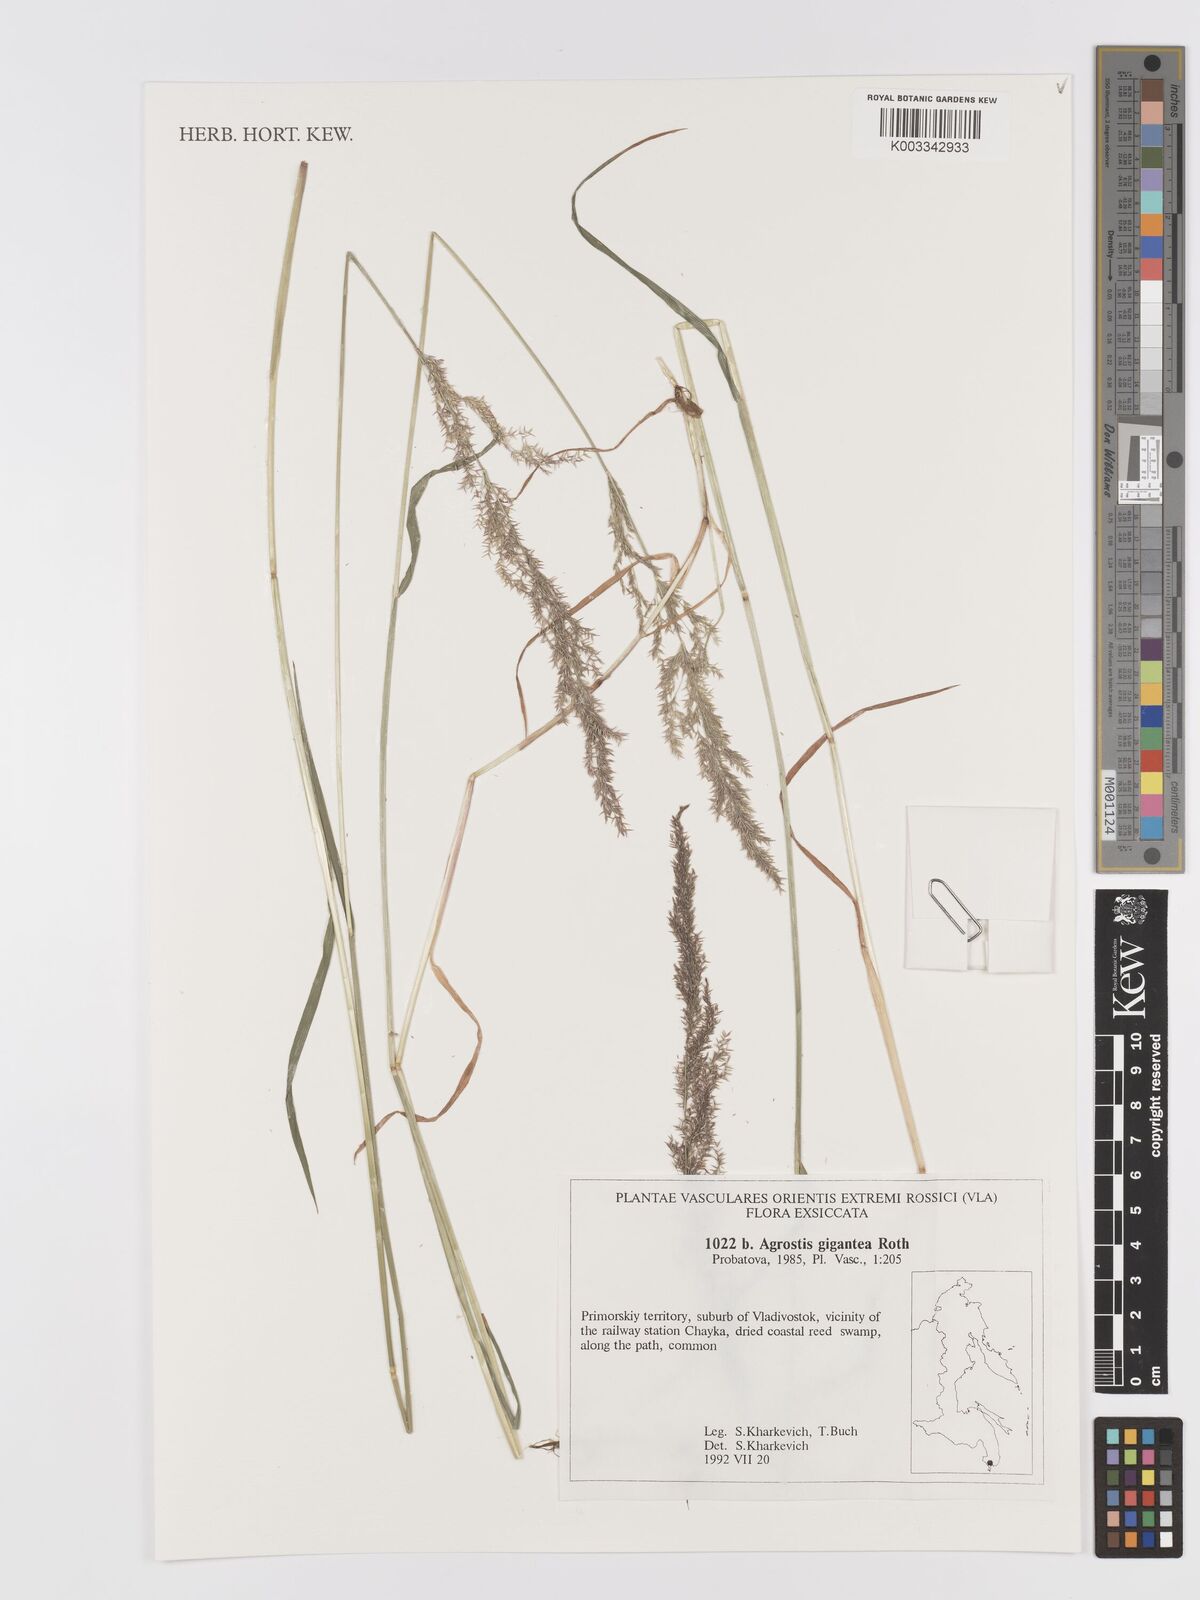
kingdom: Plantae
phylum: Tracheophyta
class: Liliopsida
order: Poales
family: Poaceae
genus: Agrostis
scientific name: Agrostis gigantea
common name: Black bent
